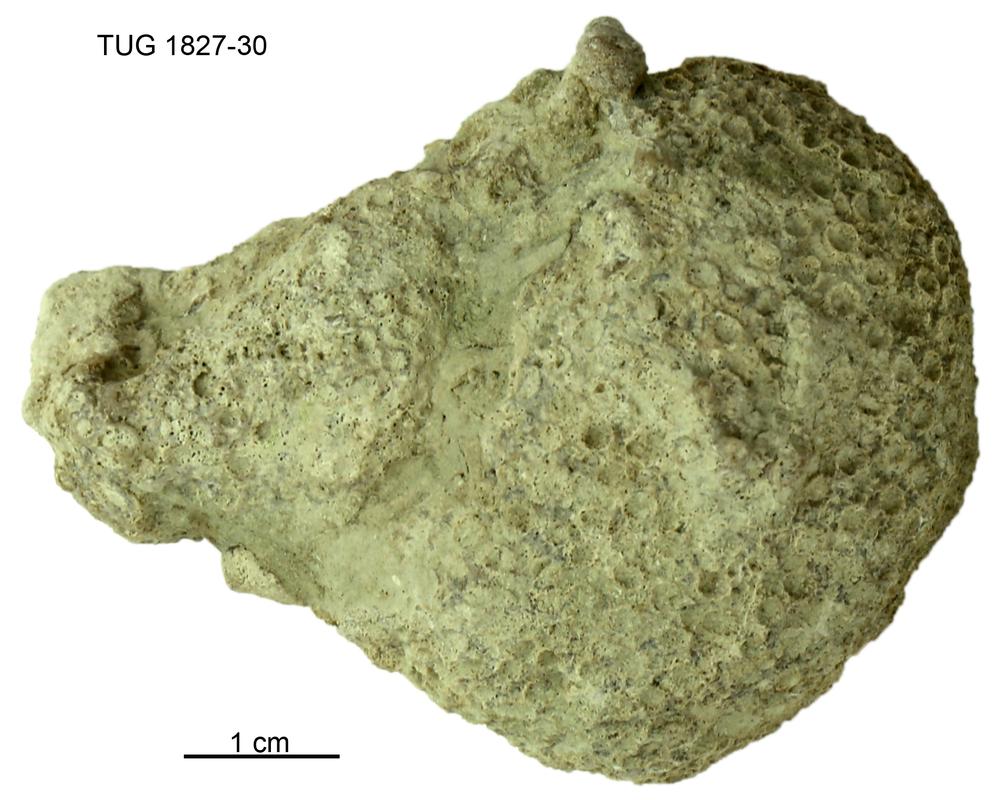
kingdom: Animalia
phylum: Xenacoelomorpha
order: Acoela
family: Proporidae
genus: Propora
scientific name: Propora
